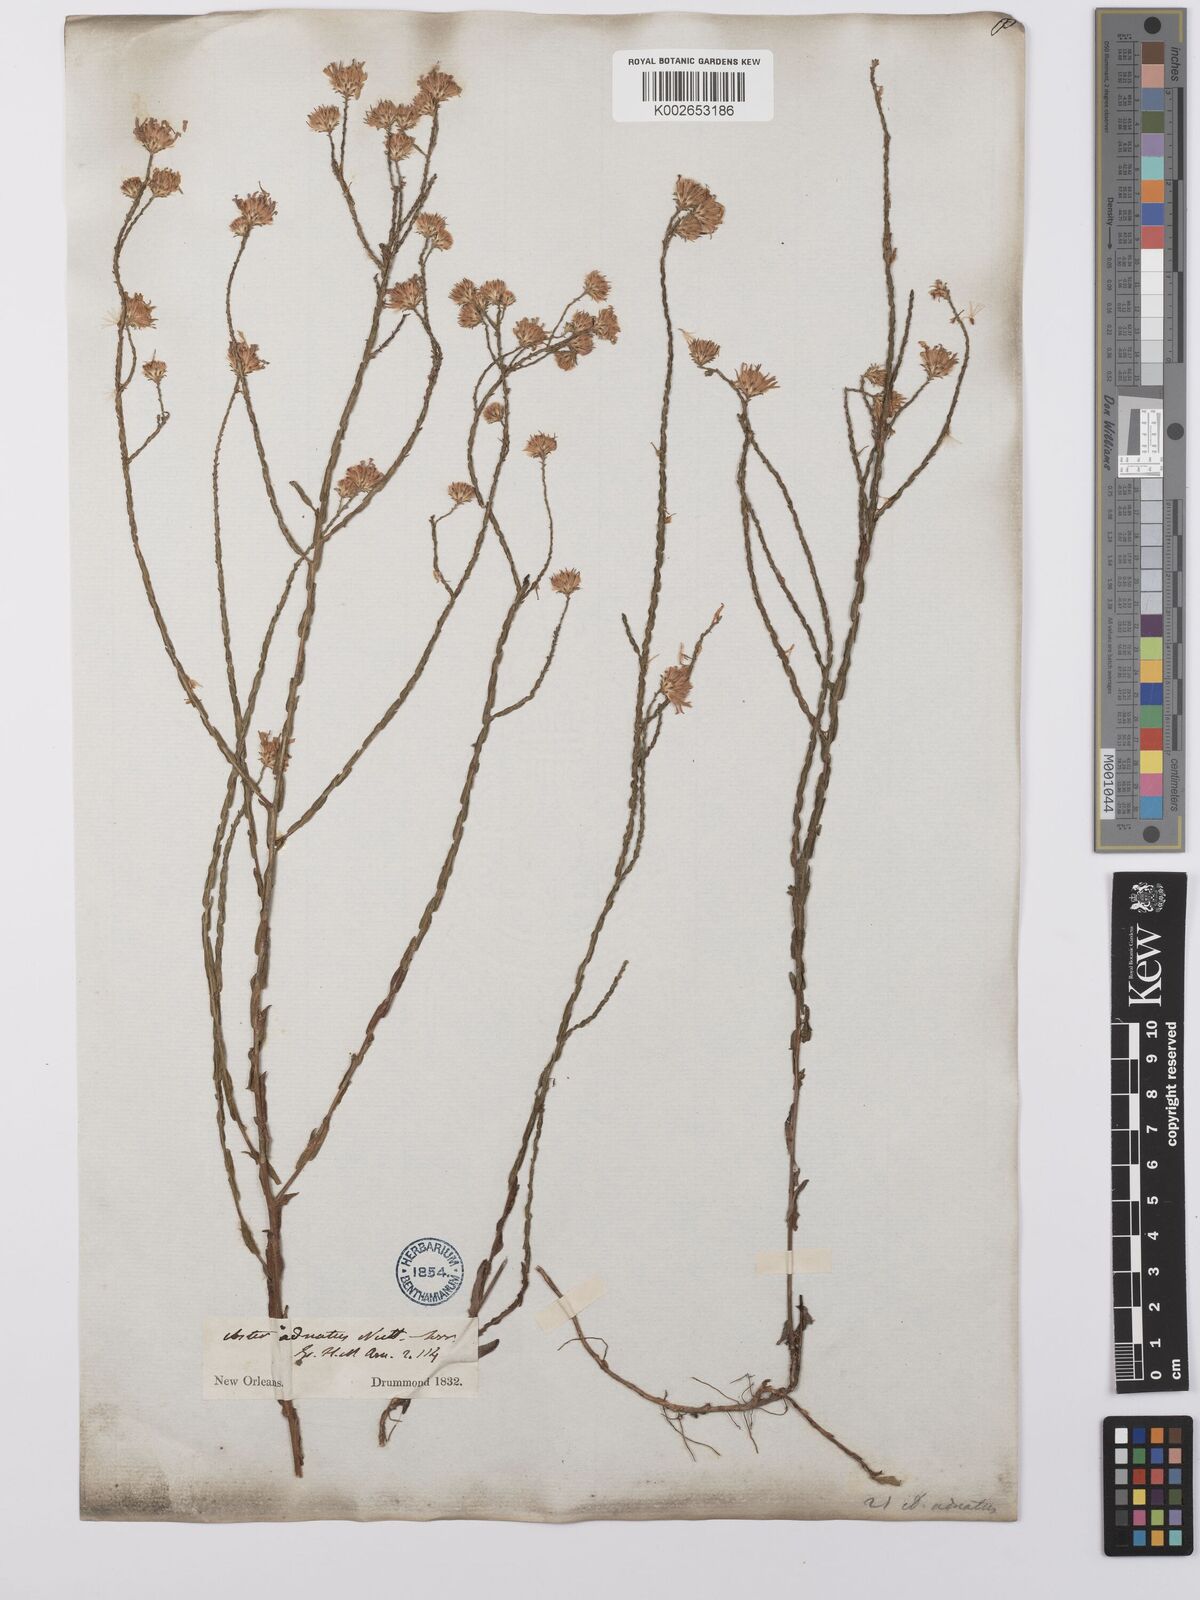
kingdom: Plantae
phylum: Tracheophyta
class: Magnoliopsida
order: Asterales
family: Asteraceae
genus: Symphyotrichum
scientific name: Symphyotrichum adnatum
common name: Scale-leaf aster
